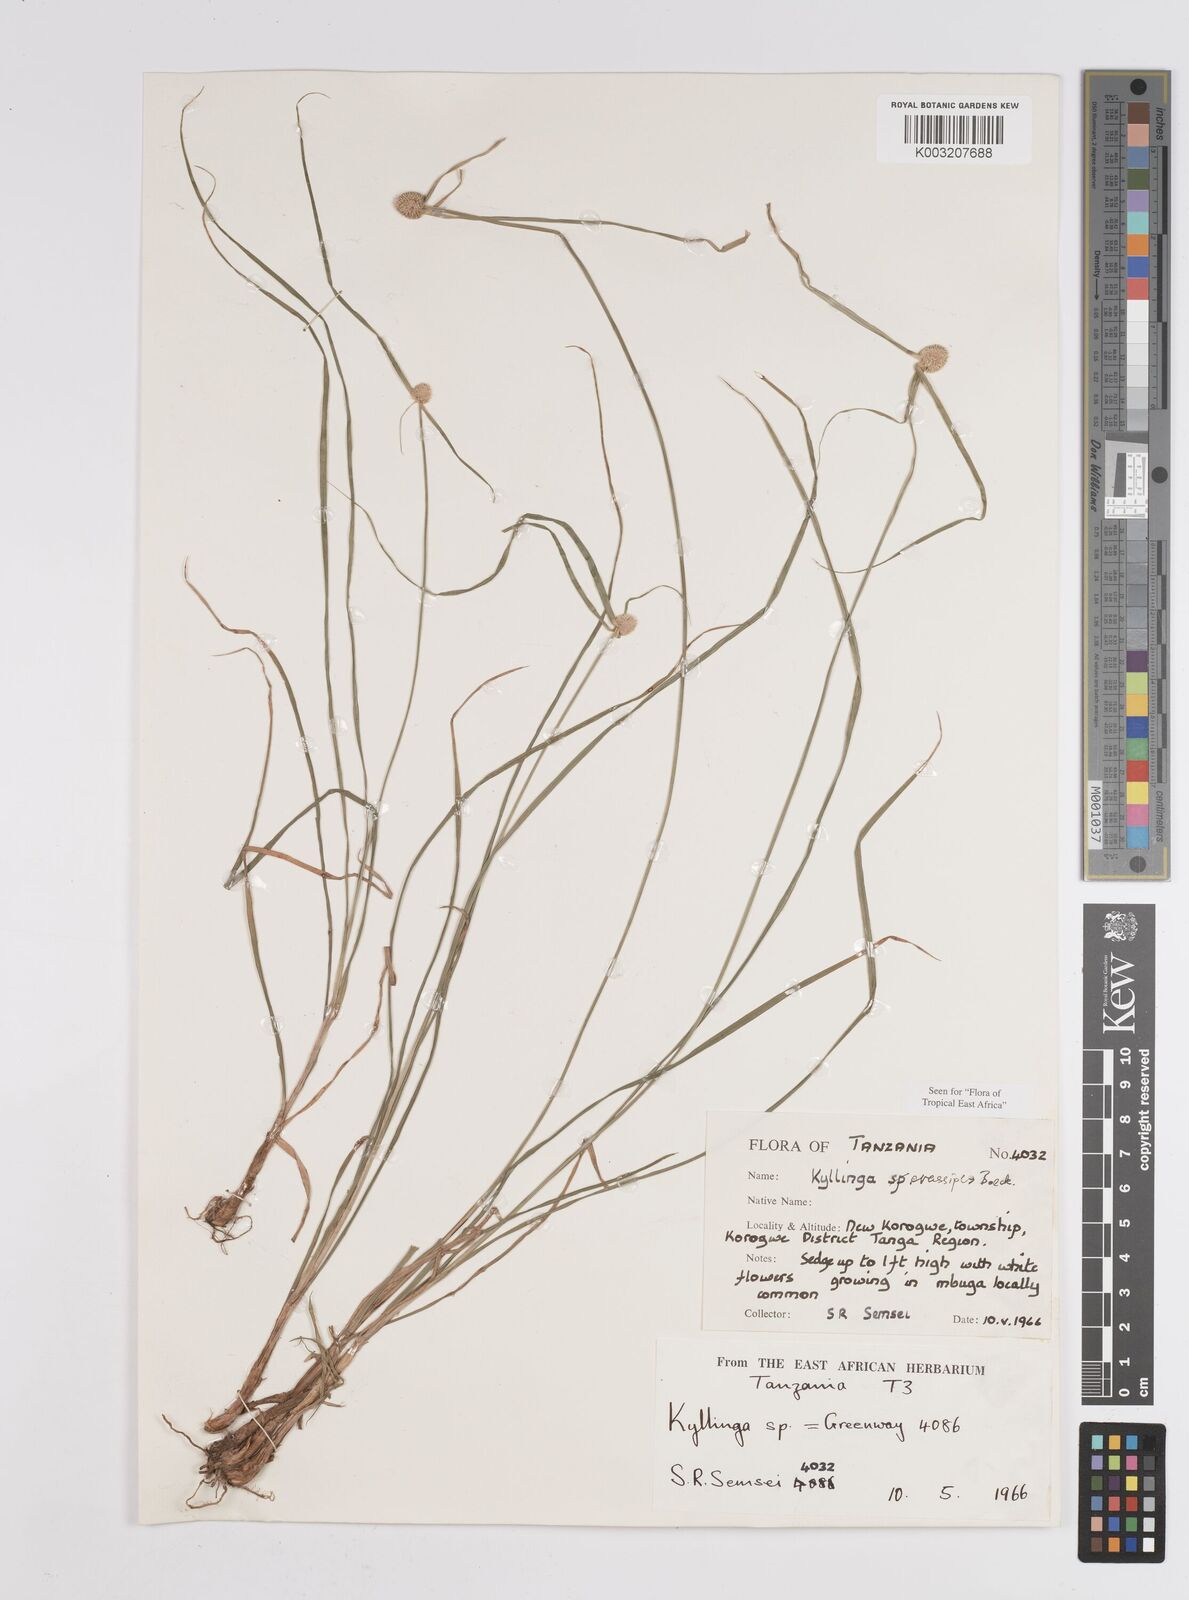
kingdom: Plantae
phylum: Tracheophyta
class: Liliopsida
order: Poales
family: Cyperaceae
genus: Cyperus
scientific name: Cyperus crassipes
